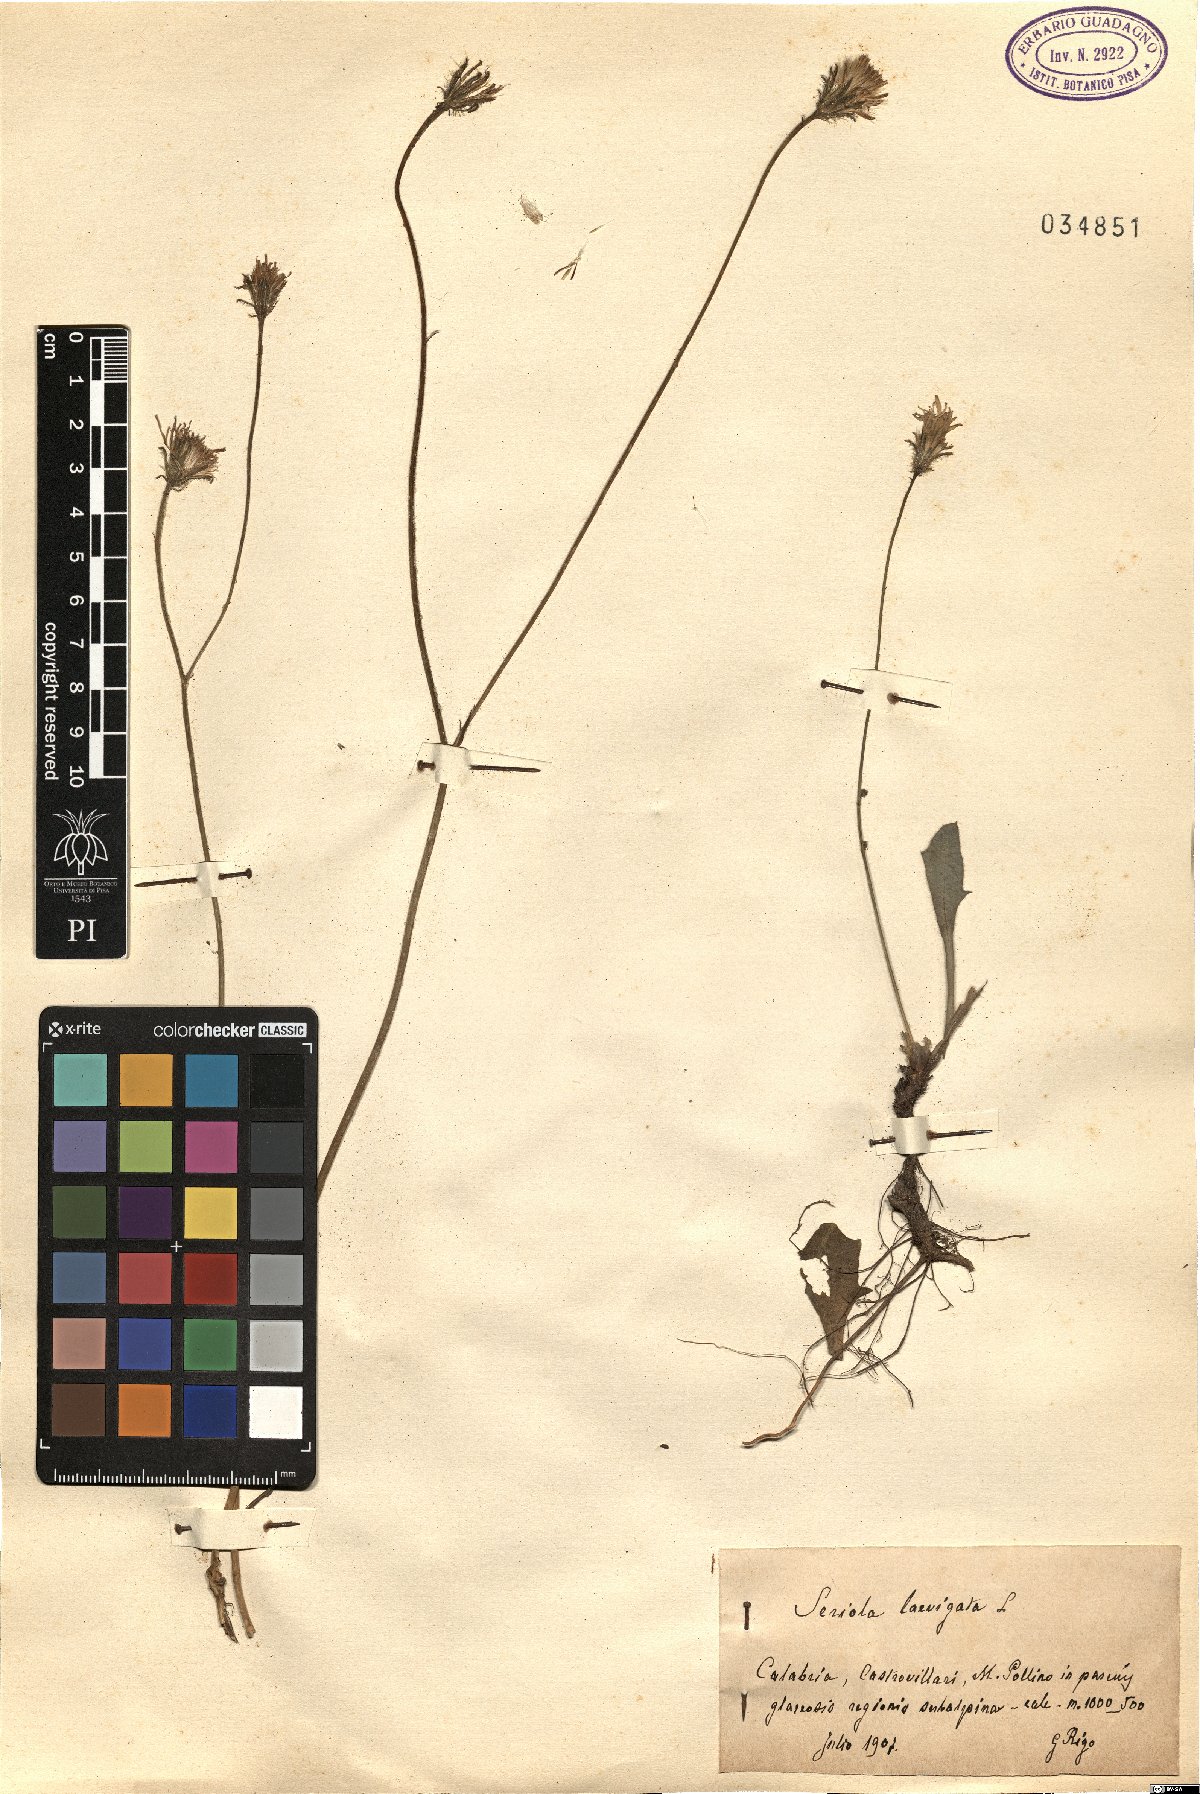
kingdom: Plantae
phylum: Tracheophyta
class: Magnoliopsida
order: Asterales
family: Asteraceae
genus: Achyrophorus
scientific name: Achyrophorus laevigatus
